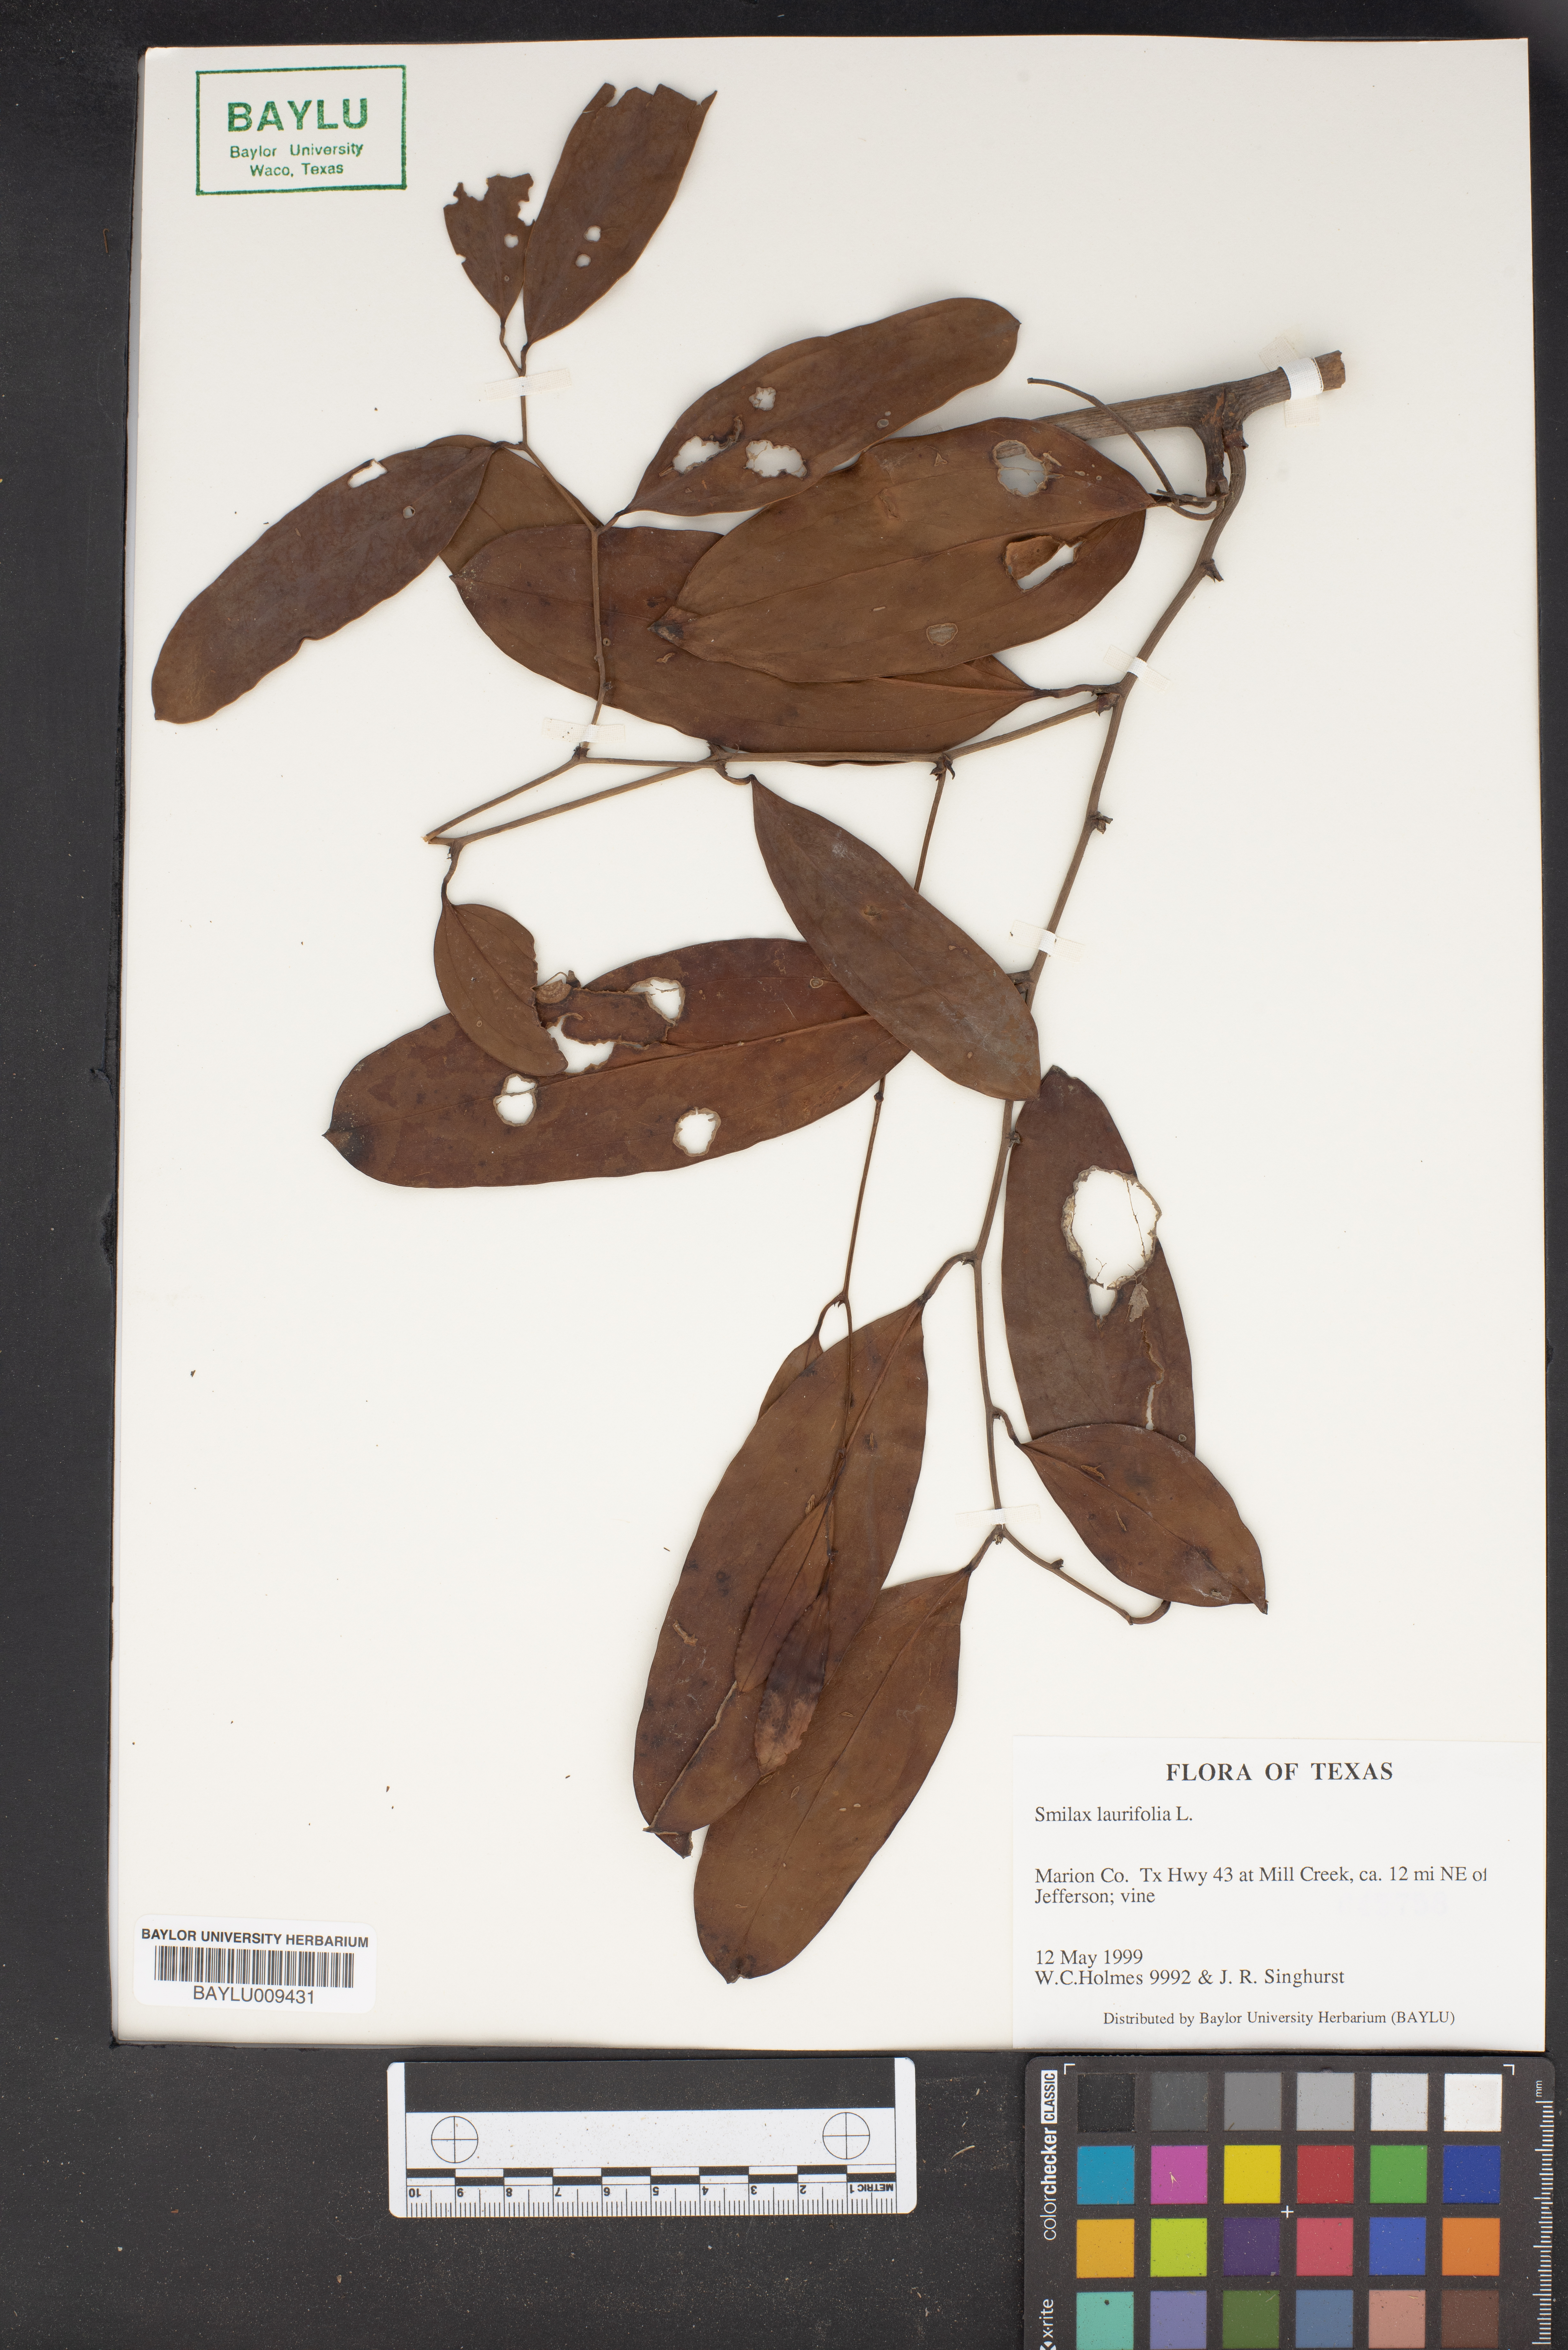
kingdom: Plantae
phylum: Tracheophyta
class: Liliopsida
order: Liliales
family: Smilacaceae
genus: Smilax
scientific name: Smilax laurifolia
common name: Bamboovine
